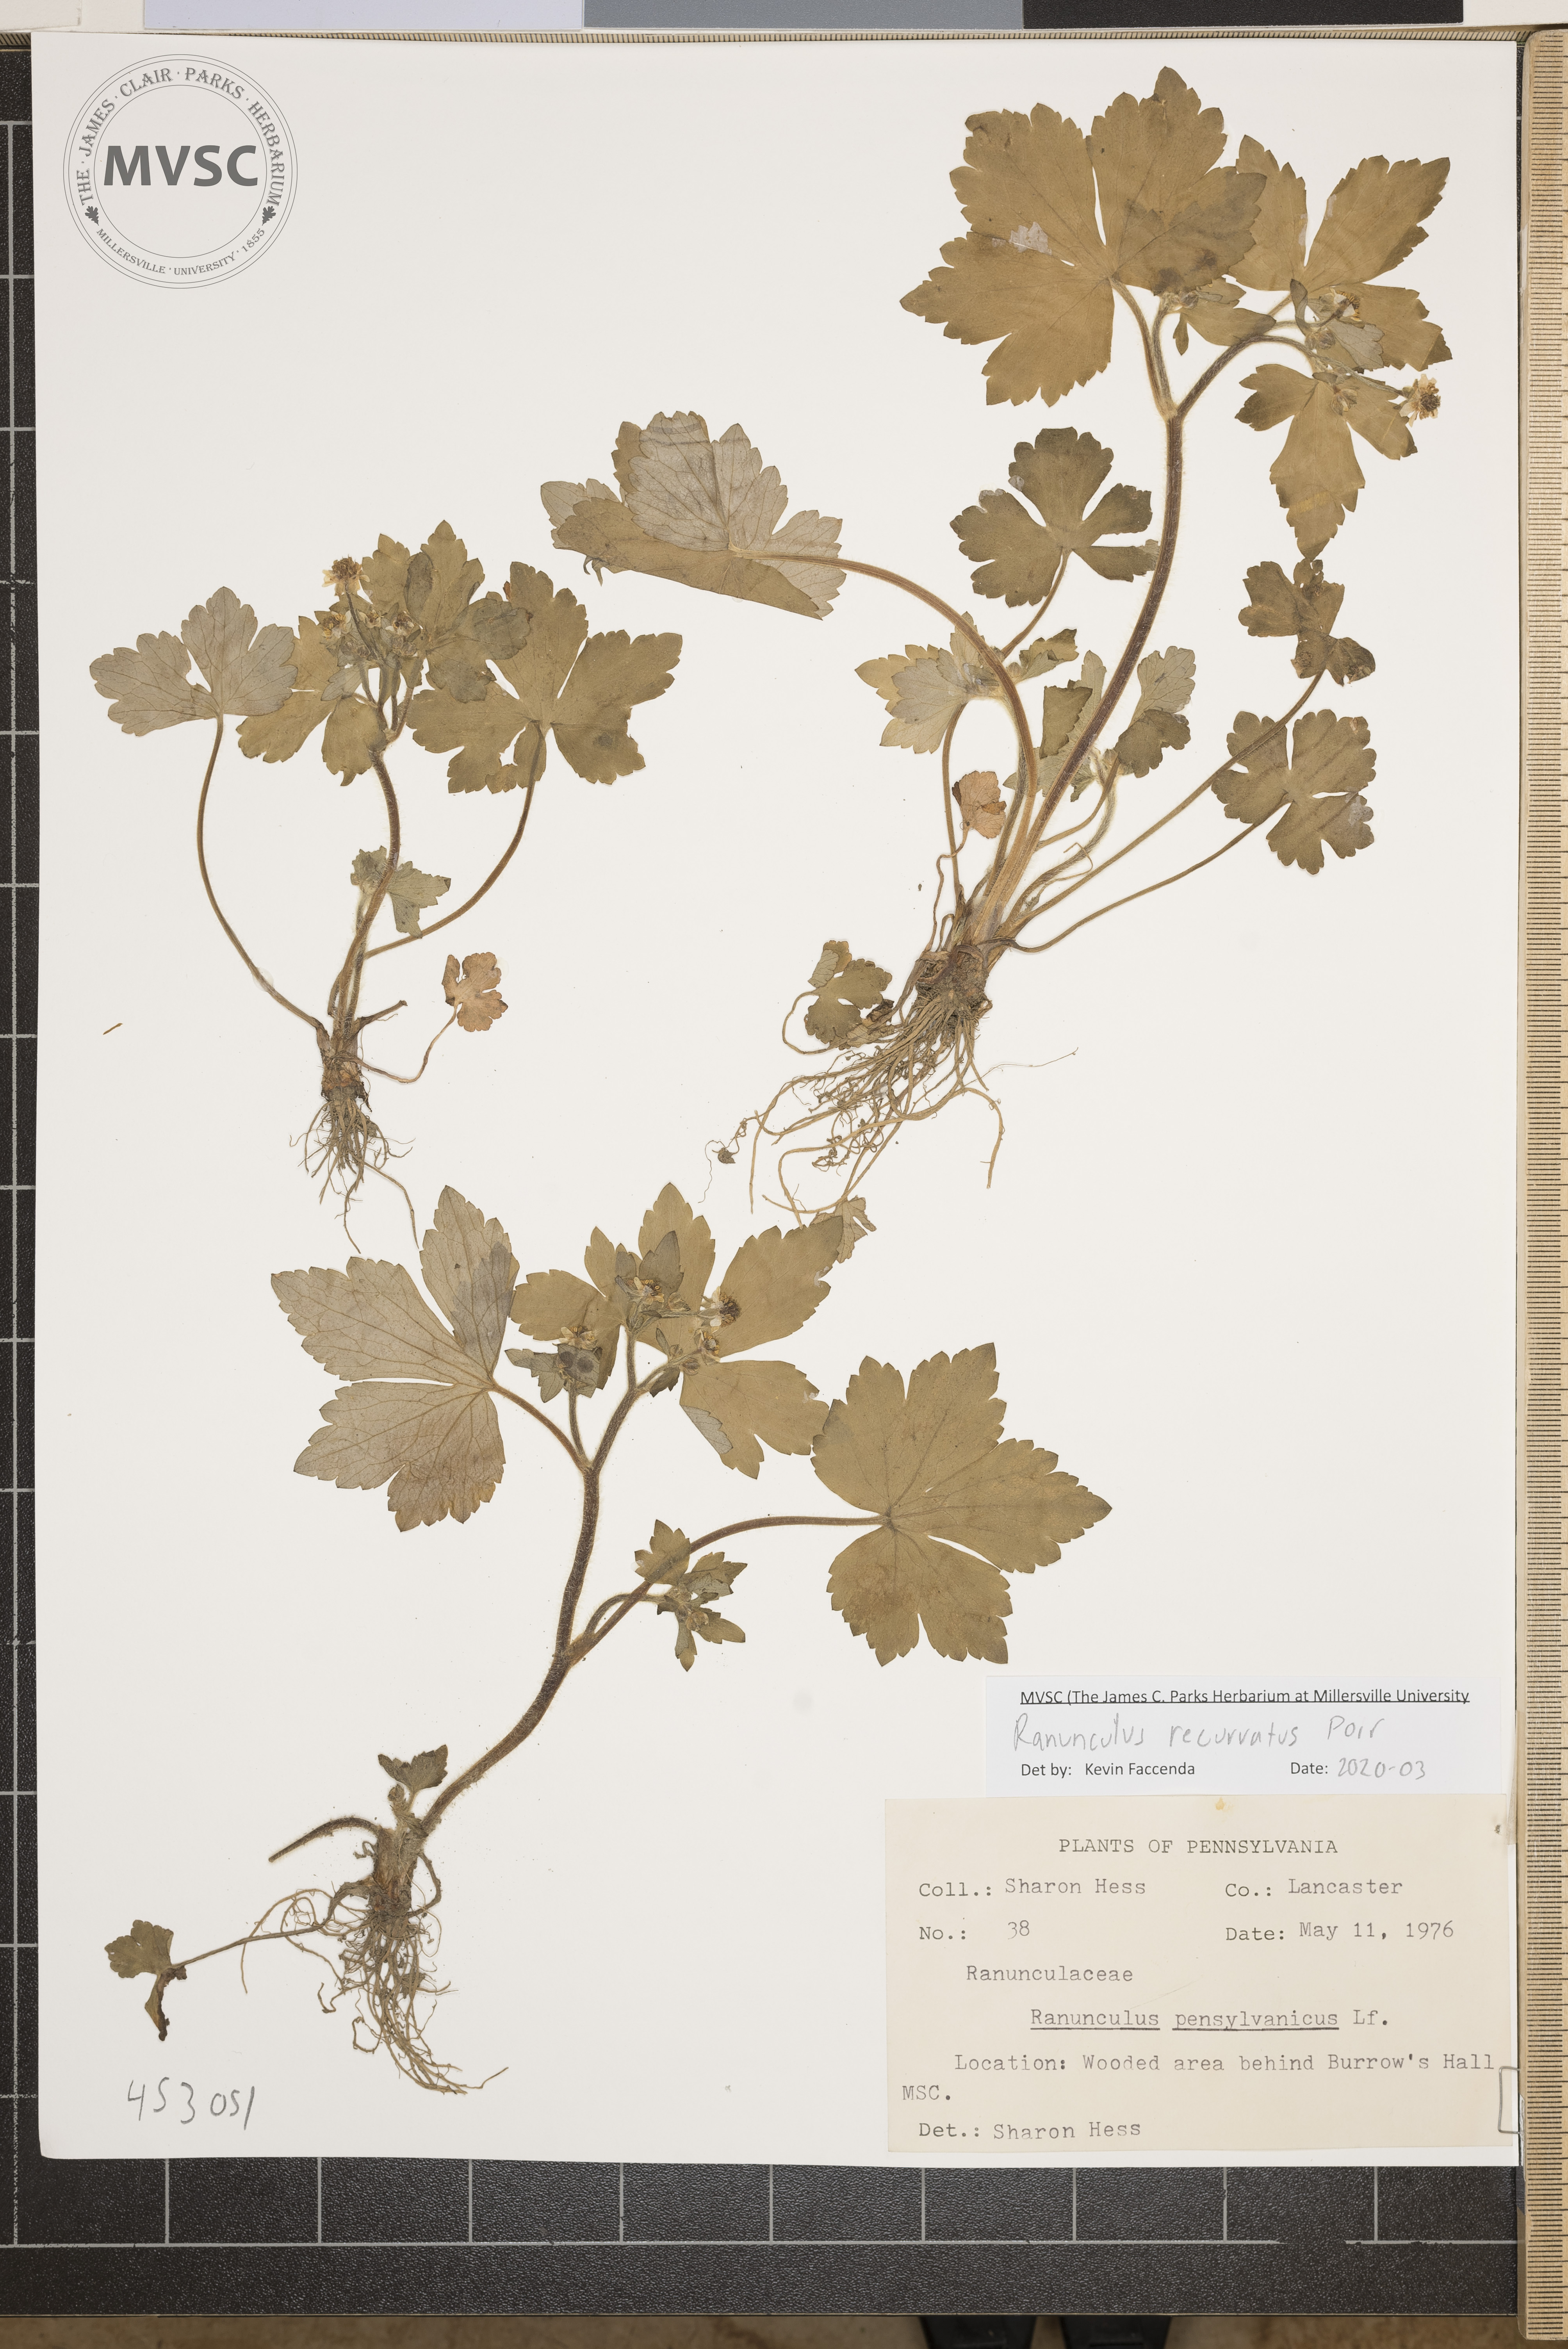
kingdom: Plantae
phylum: Tracheophyta
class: Magnoliopsida
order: Ranunculales
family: Ranunculaceae
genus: Ranunculus
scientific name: Ranunculus recurvatus
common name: Blisterwort
